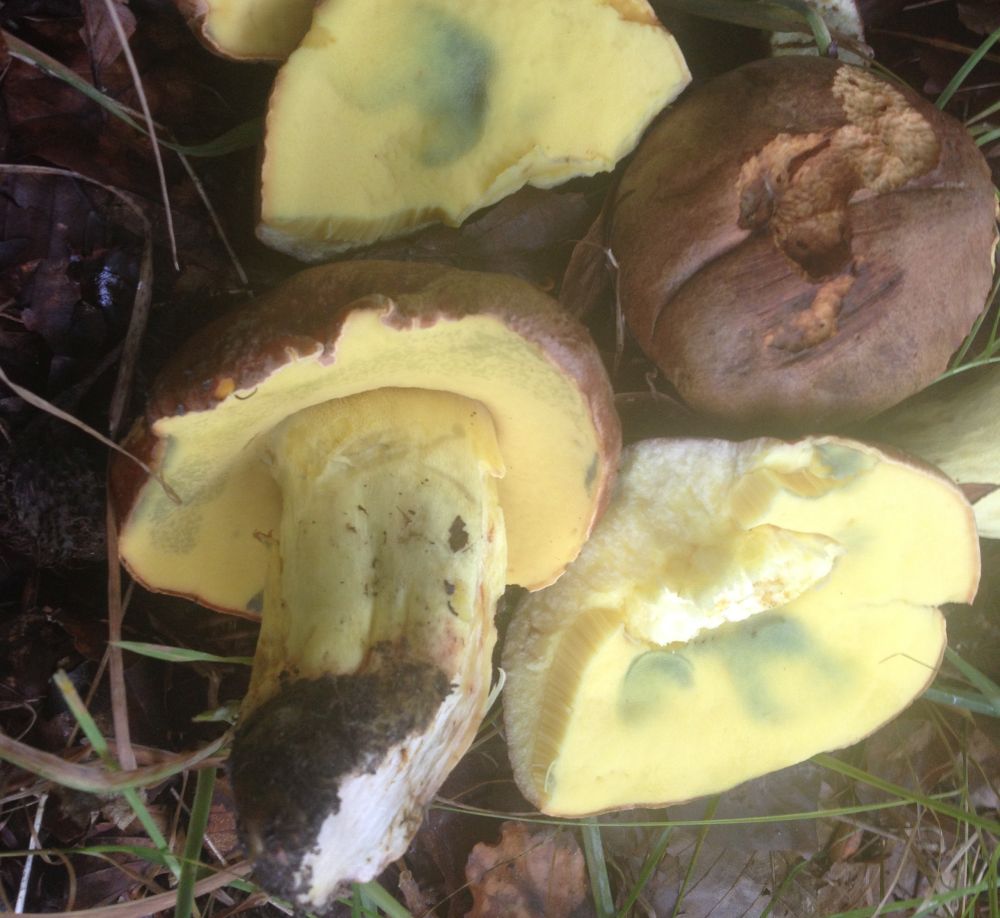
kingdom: Fungi
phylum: Basidiomycota
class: Agaricomycetes
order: Boletales
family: Boletaceae
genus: Butyriboletus
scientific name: Butyriboletus appendiculatus
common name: tenstokket rørhat
